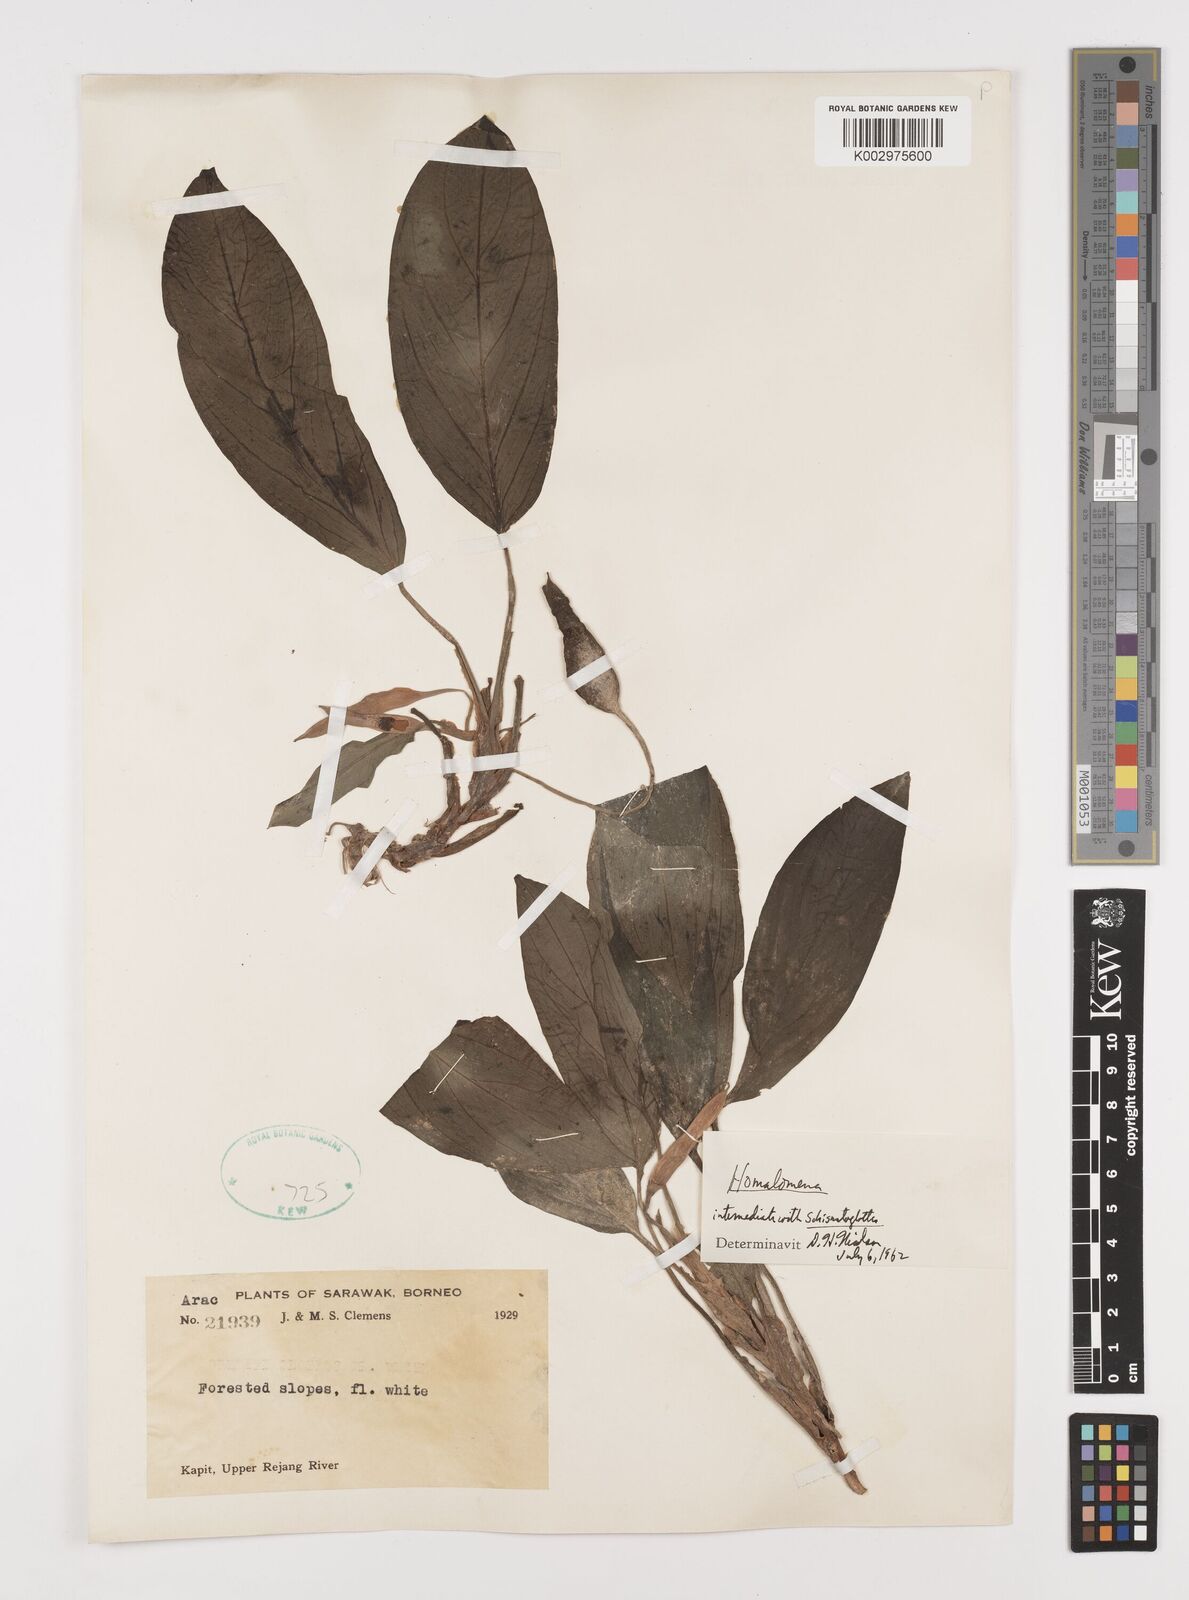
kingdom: Plantae
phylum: Tracheophyta
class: Liliopsida
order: Alismatales
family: Araceae
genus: Homalomena
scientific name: Homalomena
